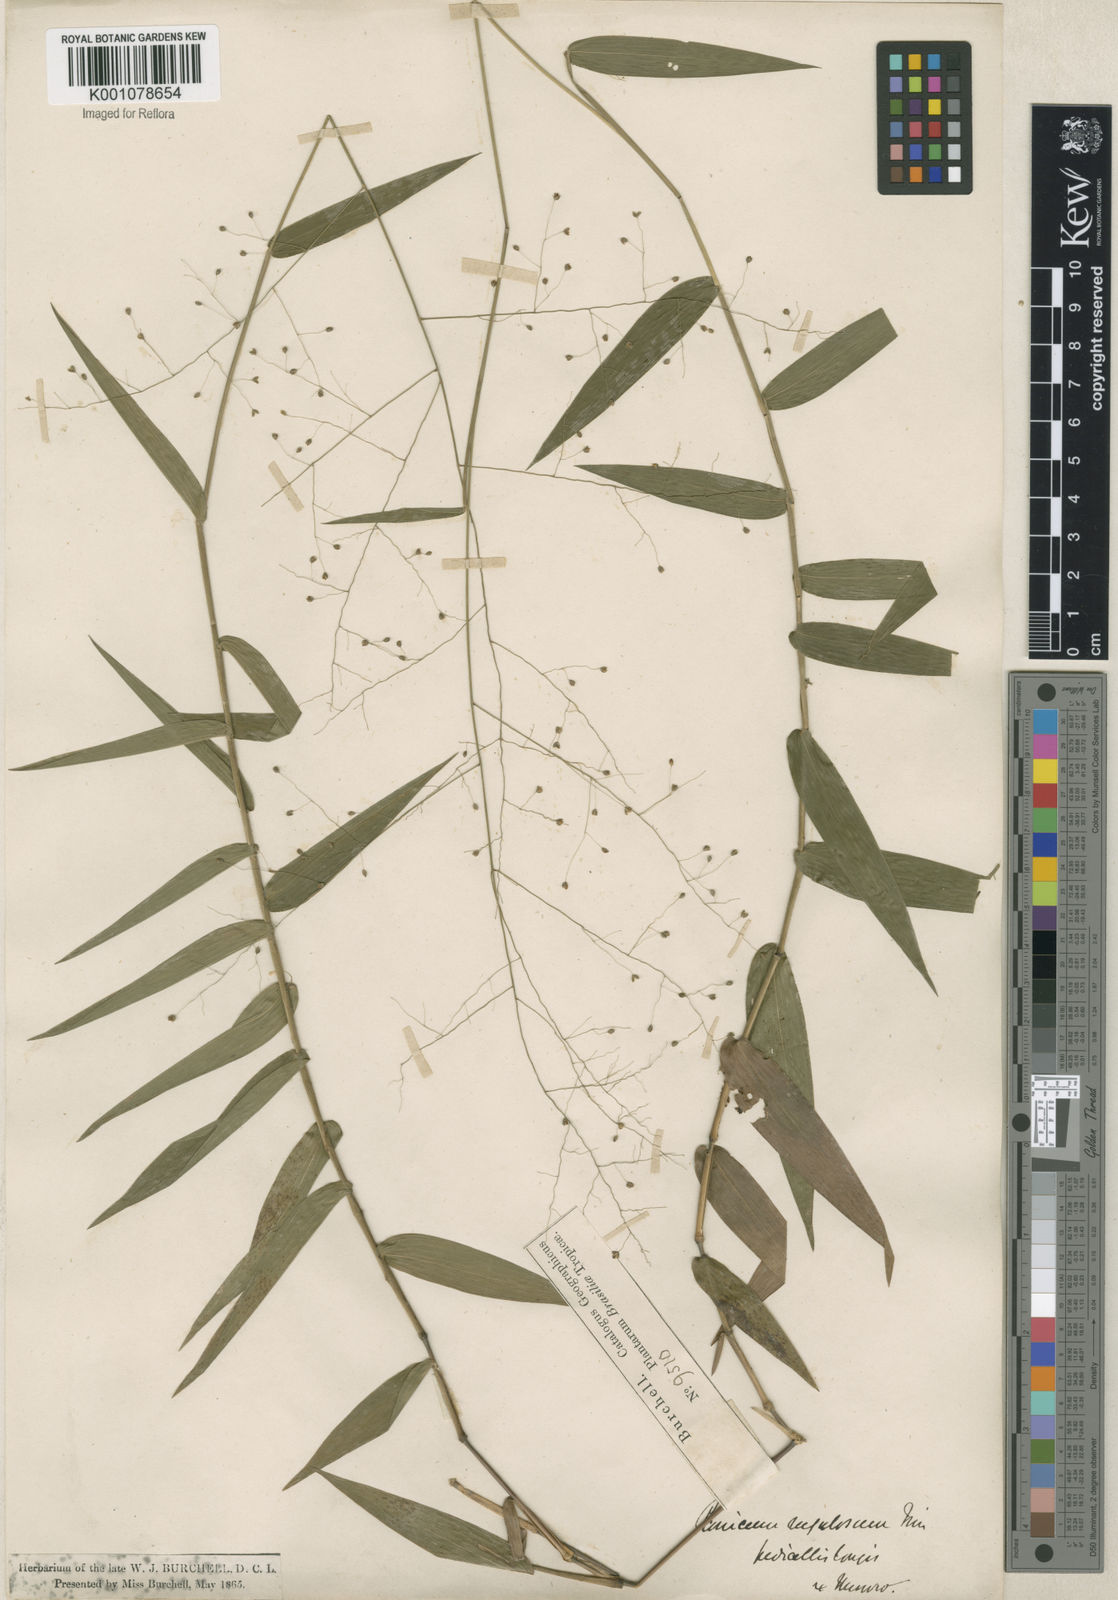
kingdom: Plantae
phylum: Tracheophyta
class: Liliopsida
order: Poales
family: Poaceae
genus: Panicum
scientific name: Panicum millegrana
